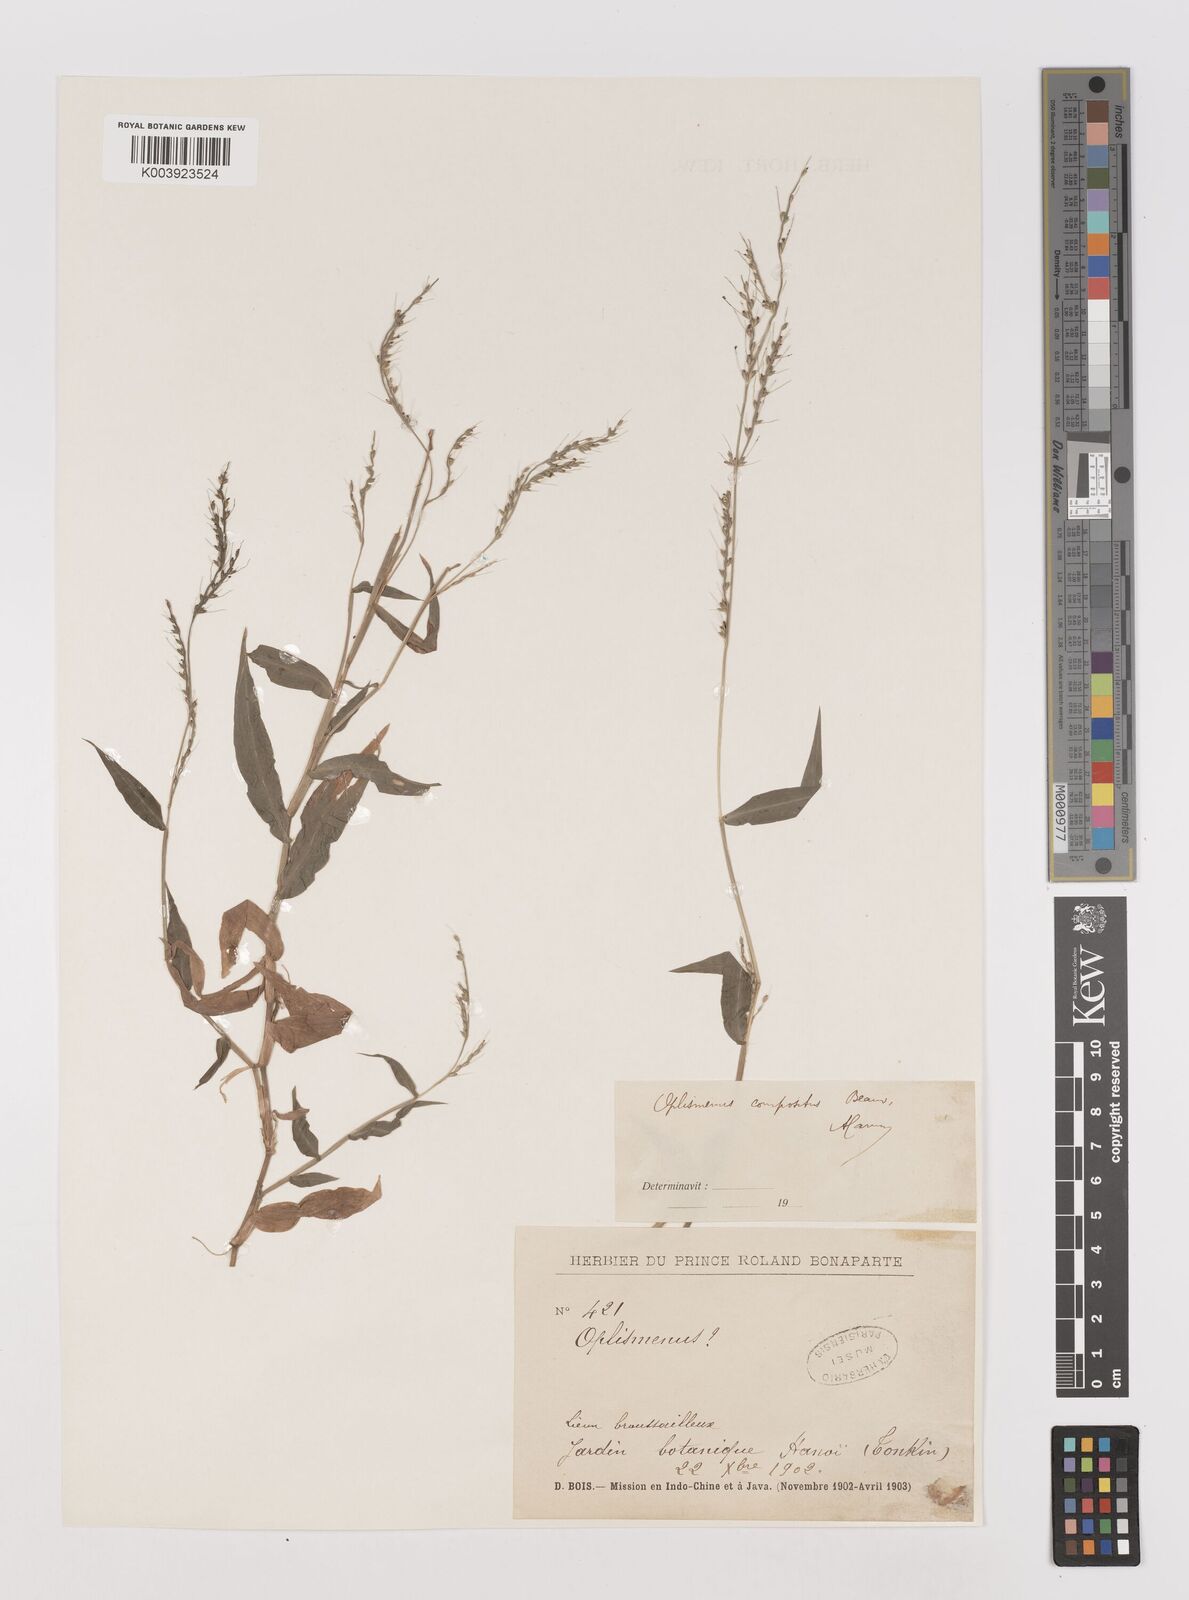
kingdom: Plantae
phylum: Tracheophyta
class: Liliopsida
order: Poales
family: Poaceae
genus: Oplismenus
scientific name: Oplismenus compositus
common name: Running mountain grass
